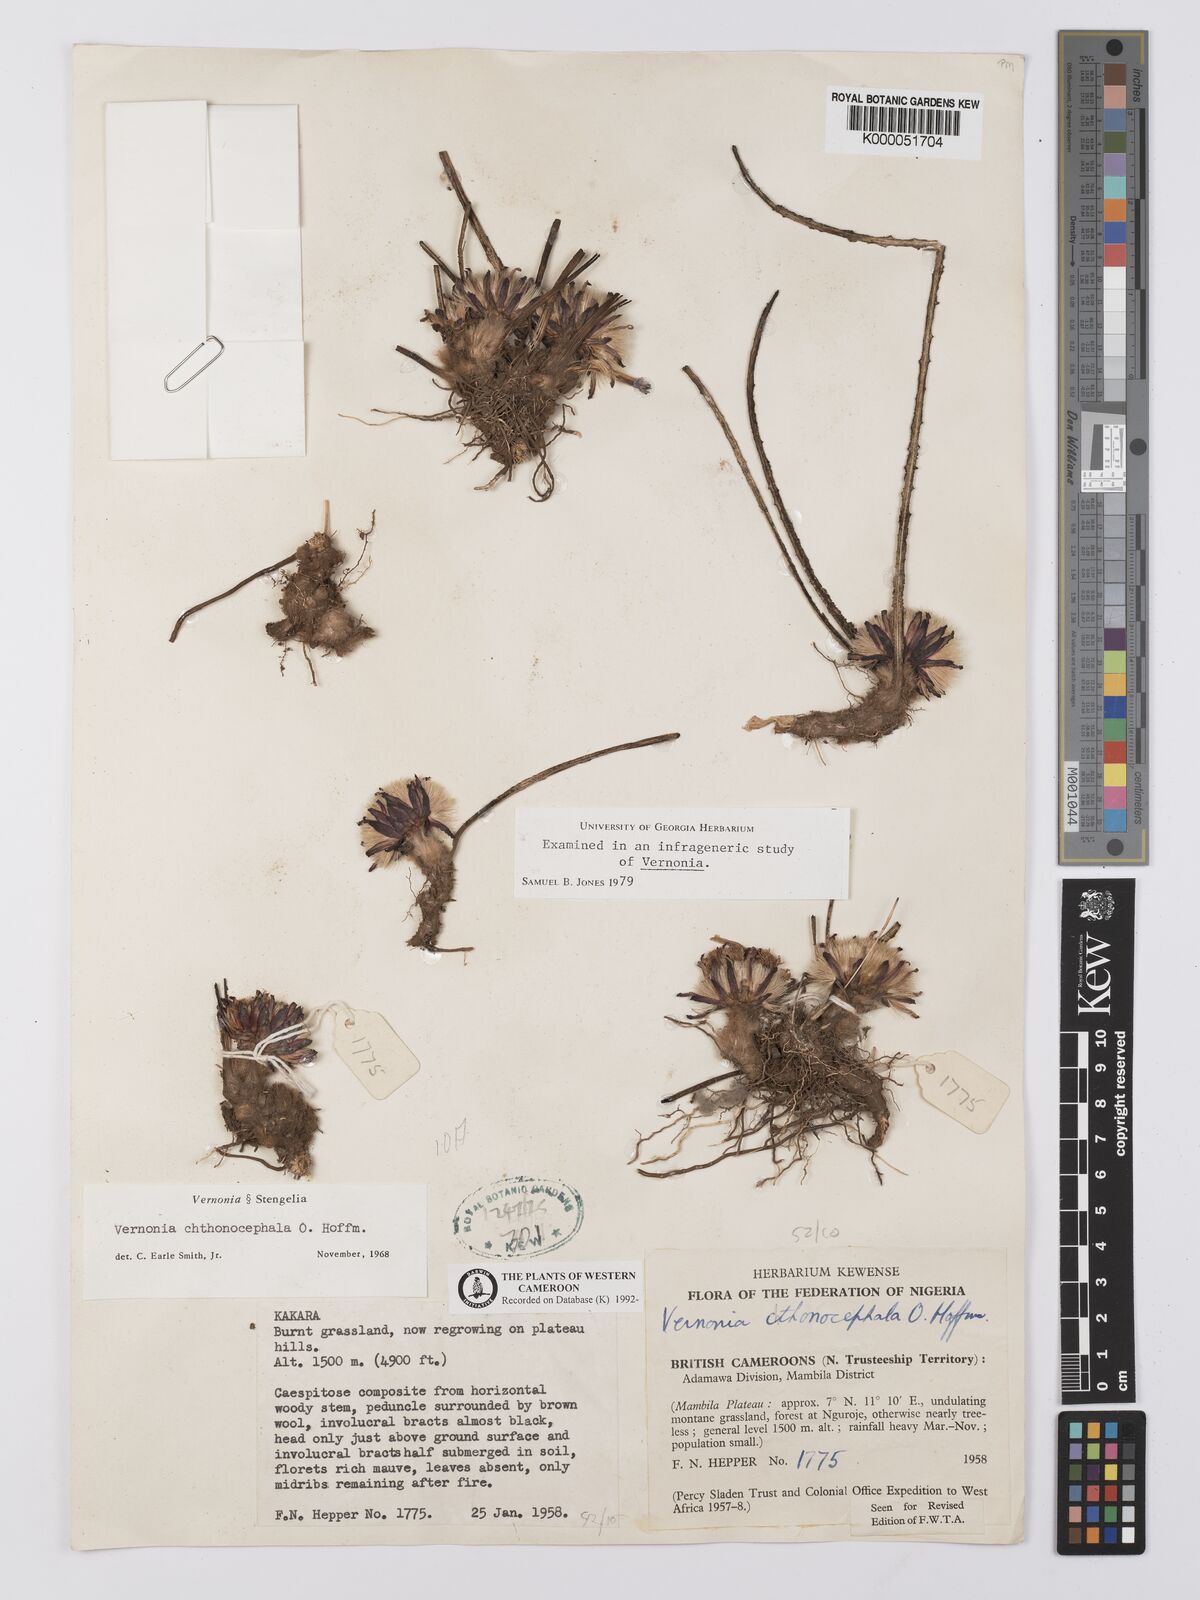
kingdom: Plantae
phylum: Tracheophyta
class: Magnoliopsida
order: Asterales
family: Asteraceae
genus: Vernonella
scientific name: Vernonella chthonocephala
